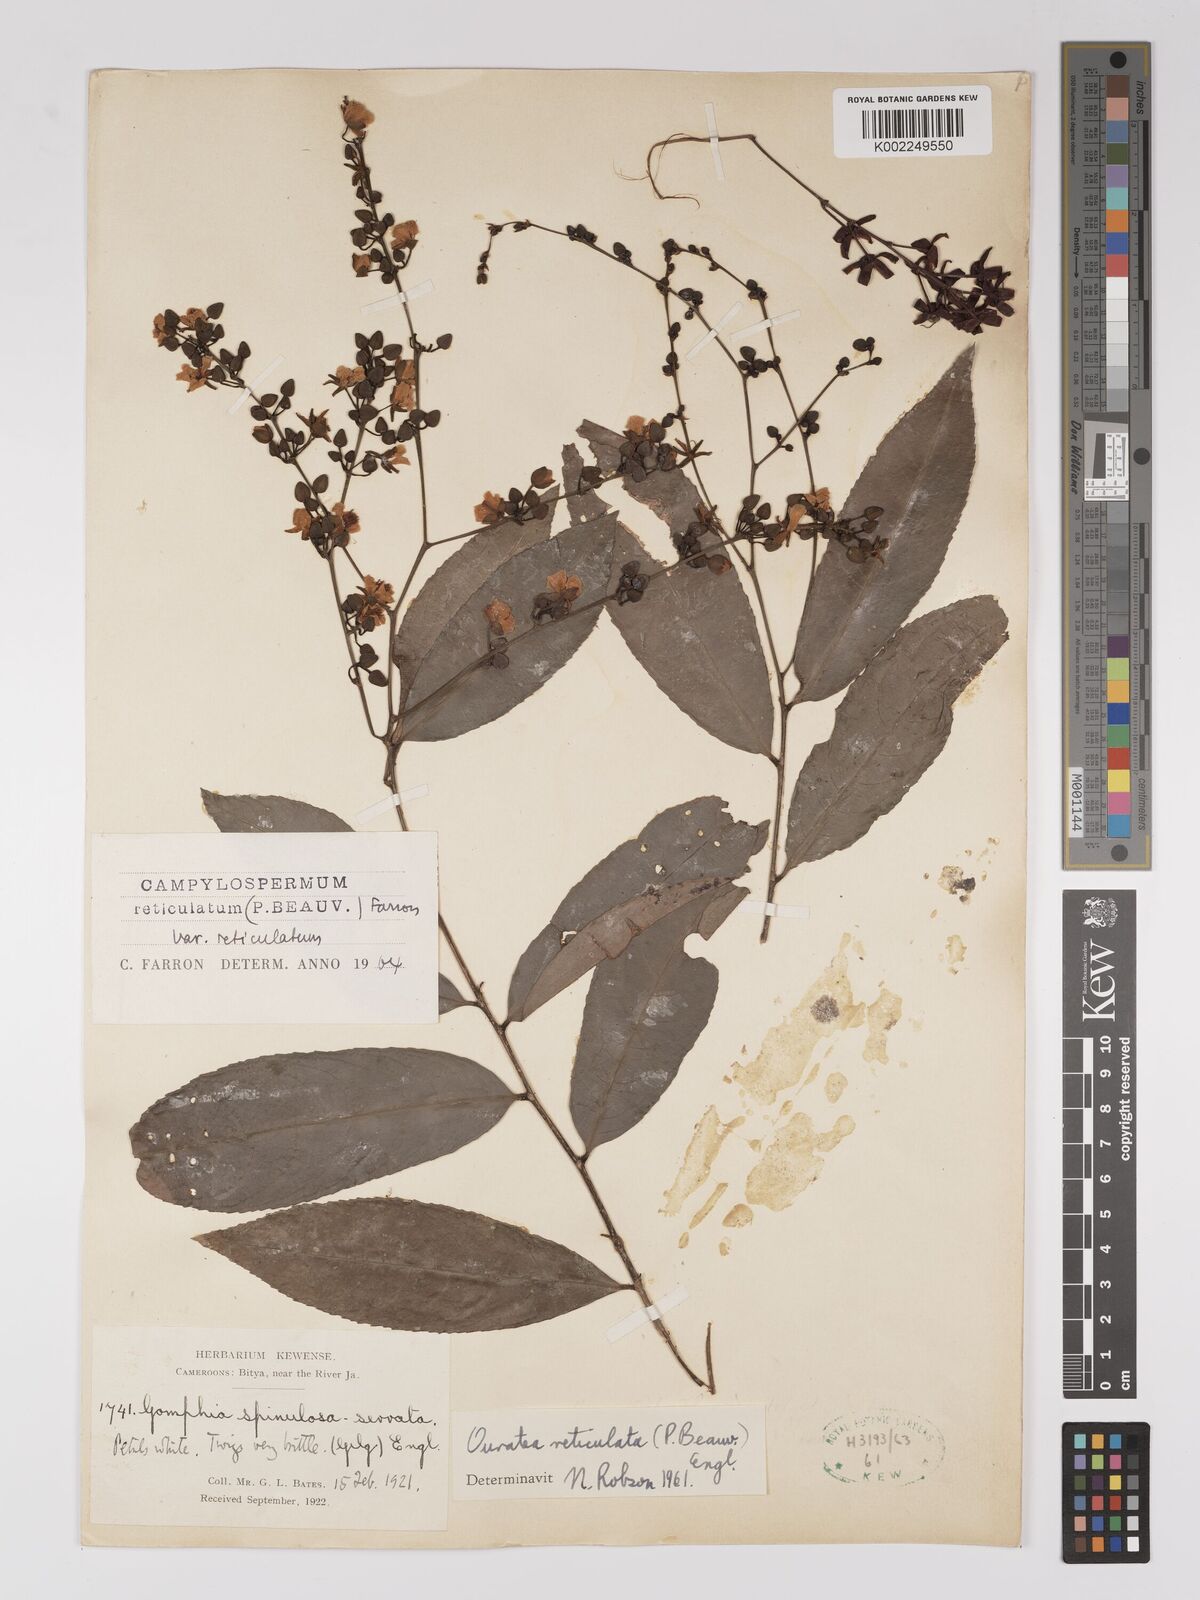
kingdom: Plantae
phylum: Tracheophyta
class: Magnoliopsida
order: Malpighiales
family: Ochnaceae
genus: Campylospermum
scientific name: Campylospermum reticulatum
